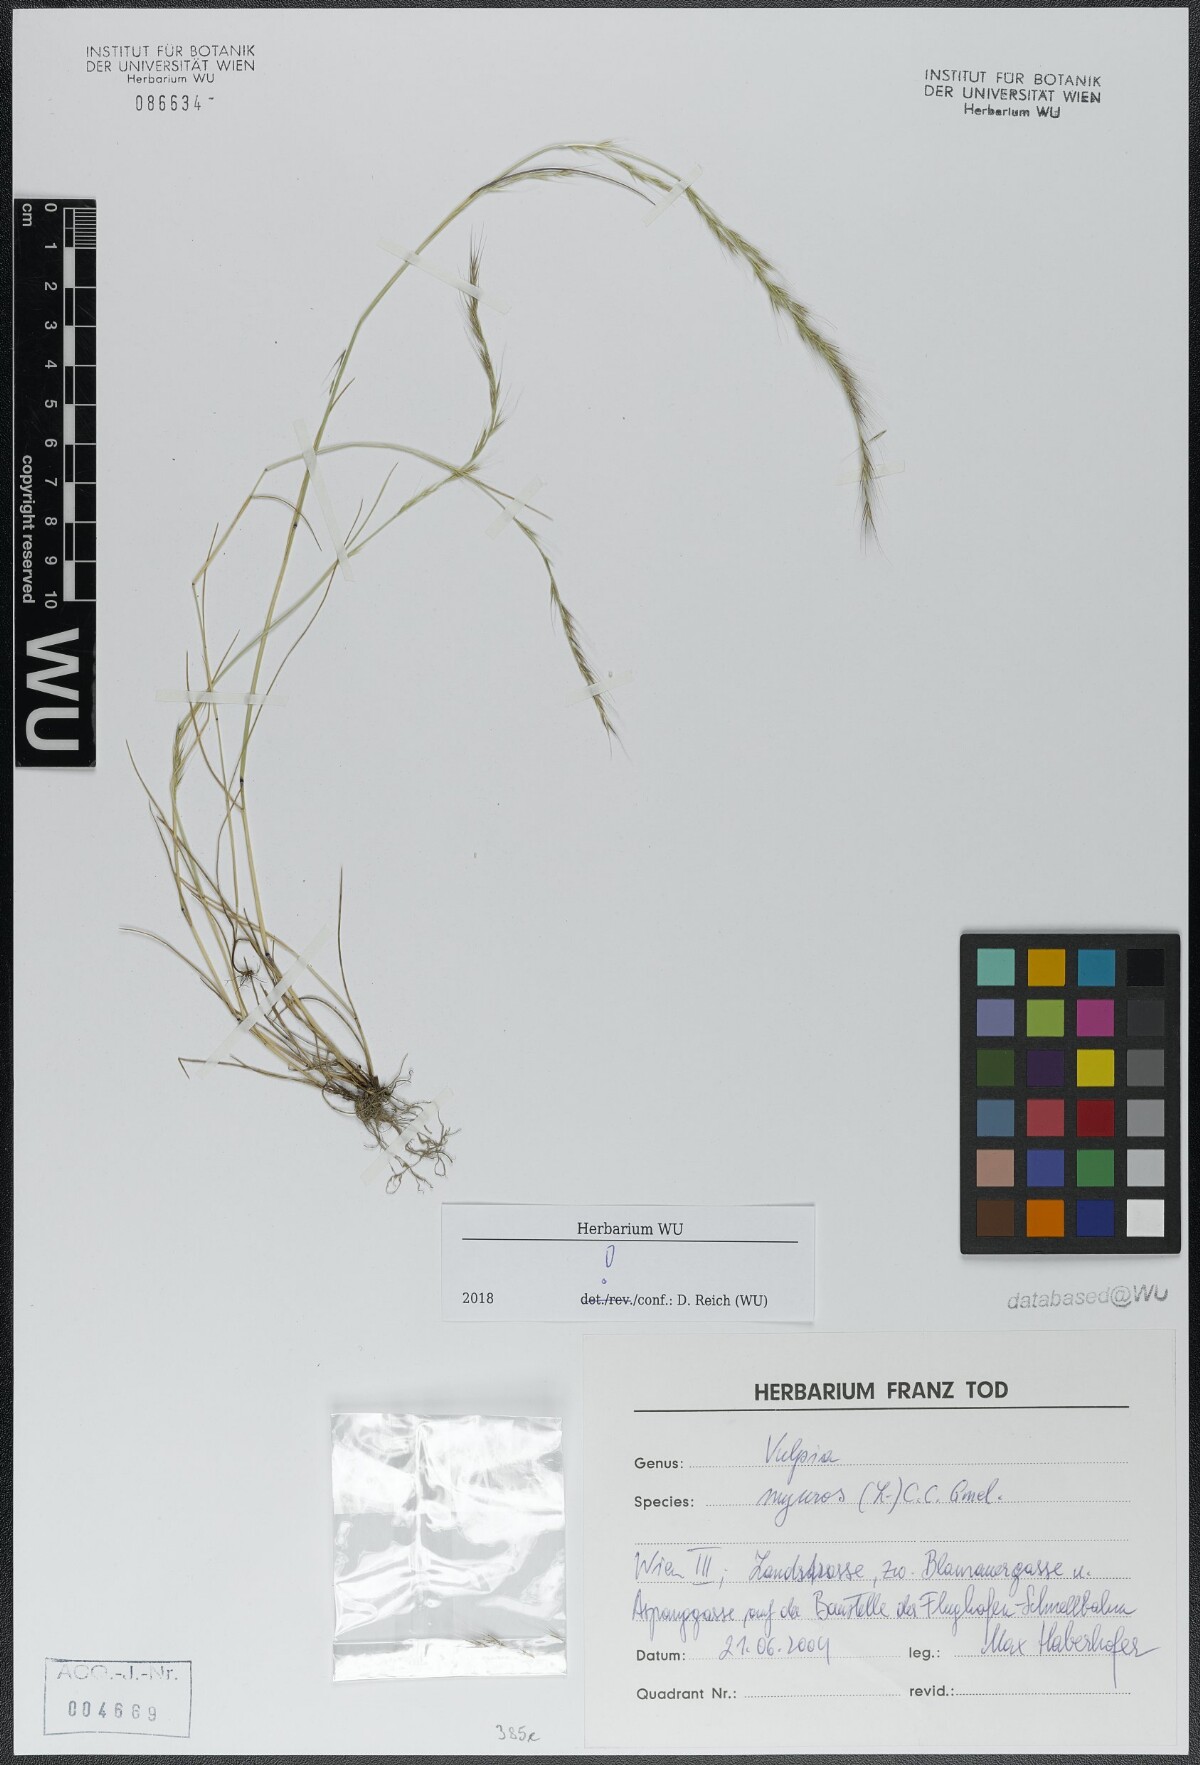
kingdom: Plantae
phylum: Tracheophyta
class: Liliopsida
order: Poales
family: Poaceae
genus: Festuca
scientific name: Festuca myuros
